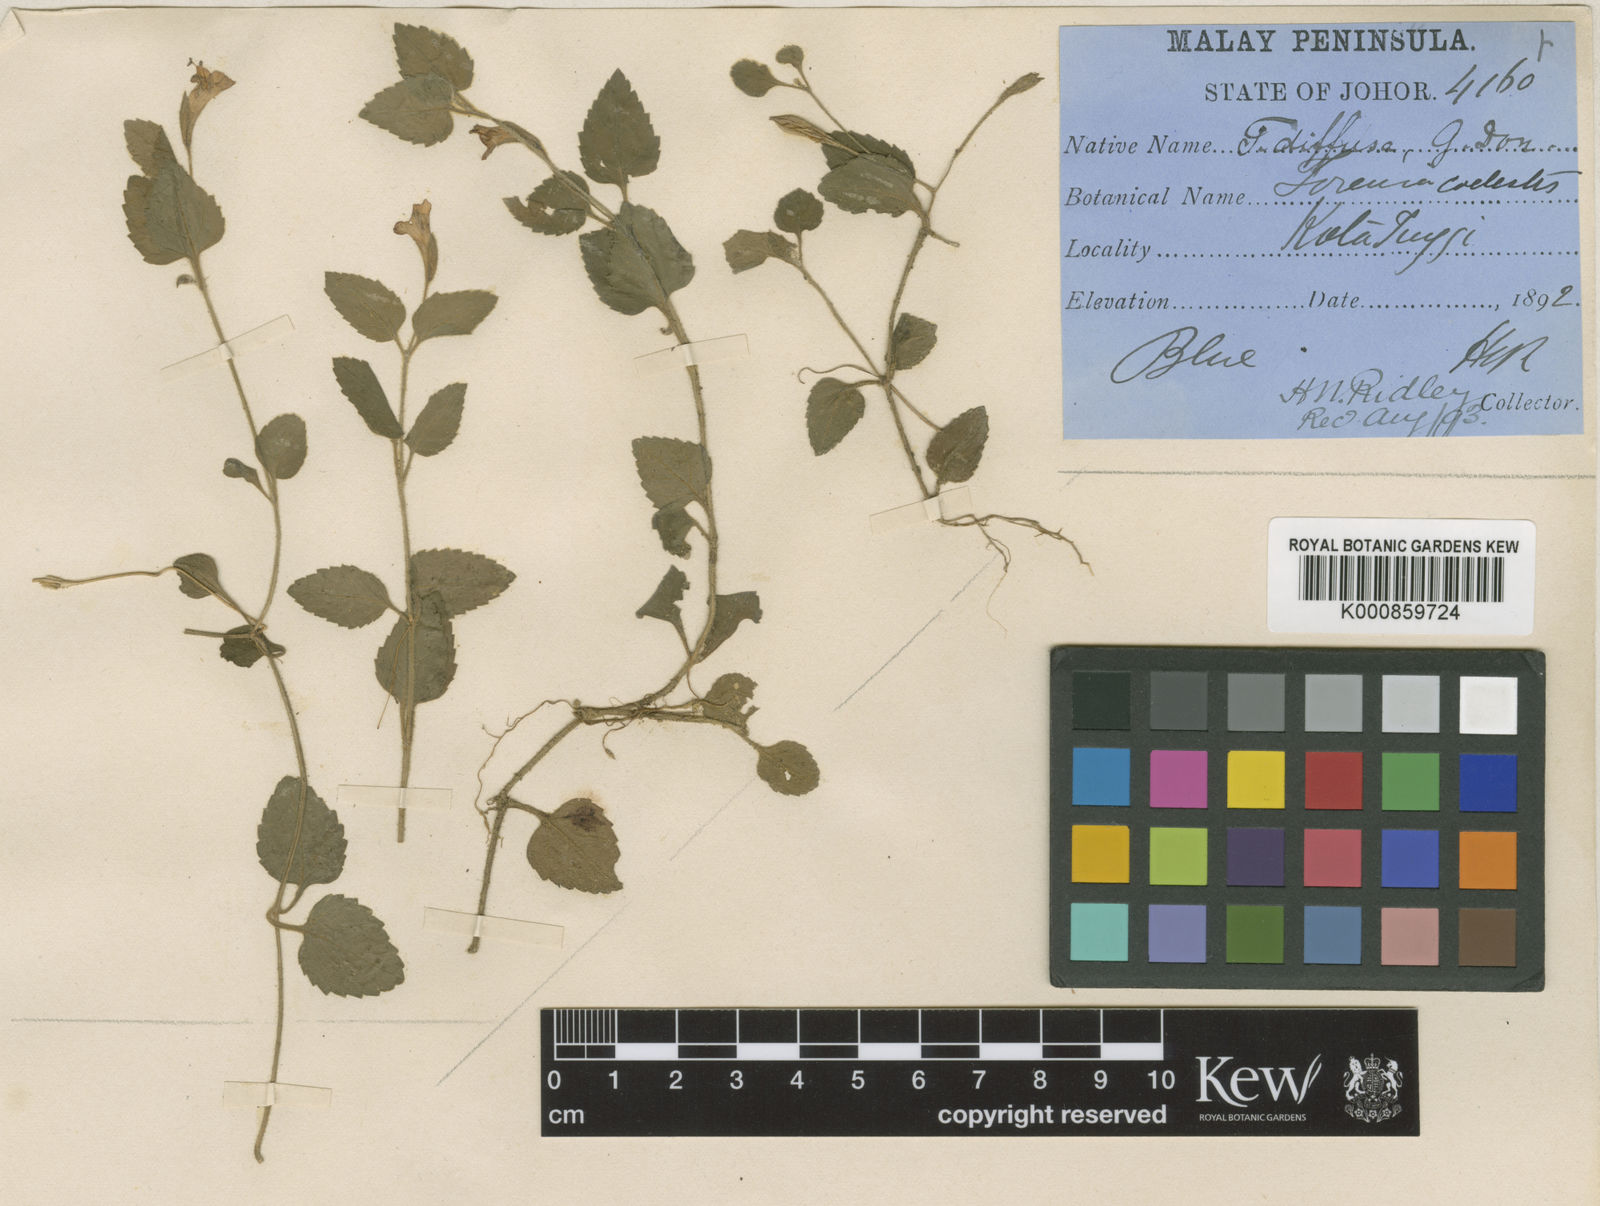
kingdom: Plantae
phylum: Tracheophyta
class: Magnoliopsida
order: Lamiales
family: Linderniaceae
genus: Torenia
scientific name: Torenia caelestis
